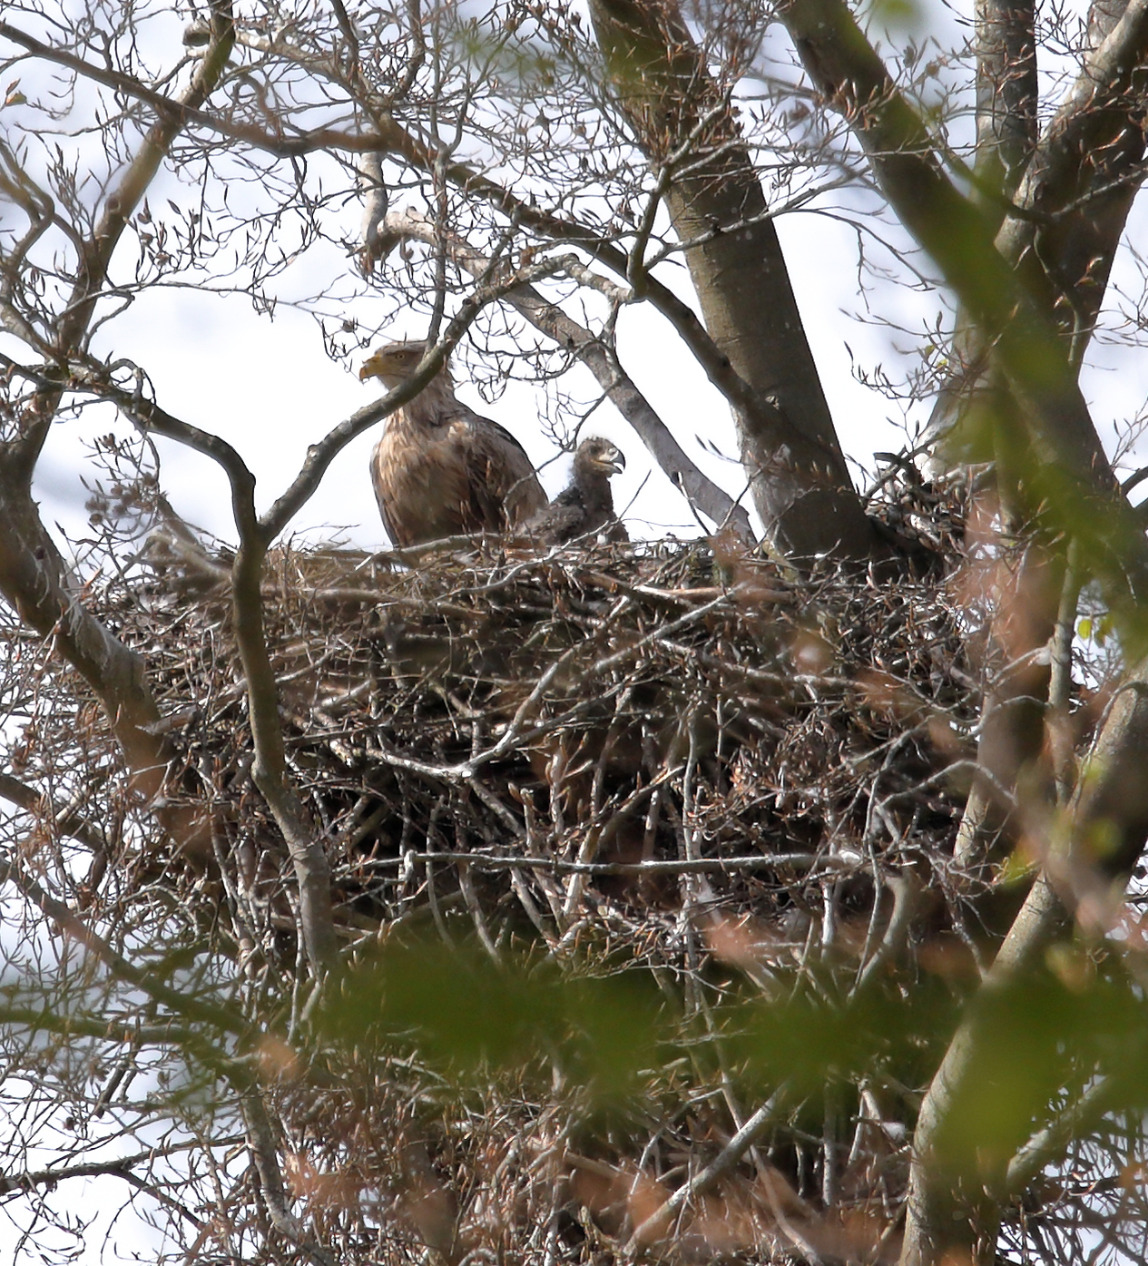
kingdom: Animalia
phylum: Chordata
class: Aves
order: Accipitriformes
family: Accipitridae
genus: Haliaeetus
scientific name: Haliaeetus albicilla
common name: Havørn
